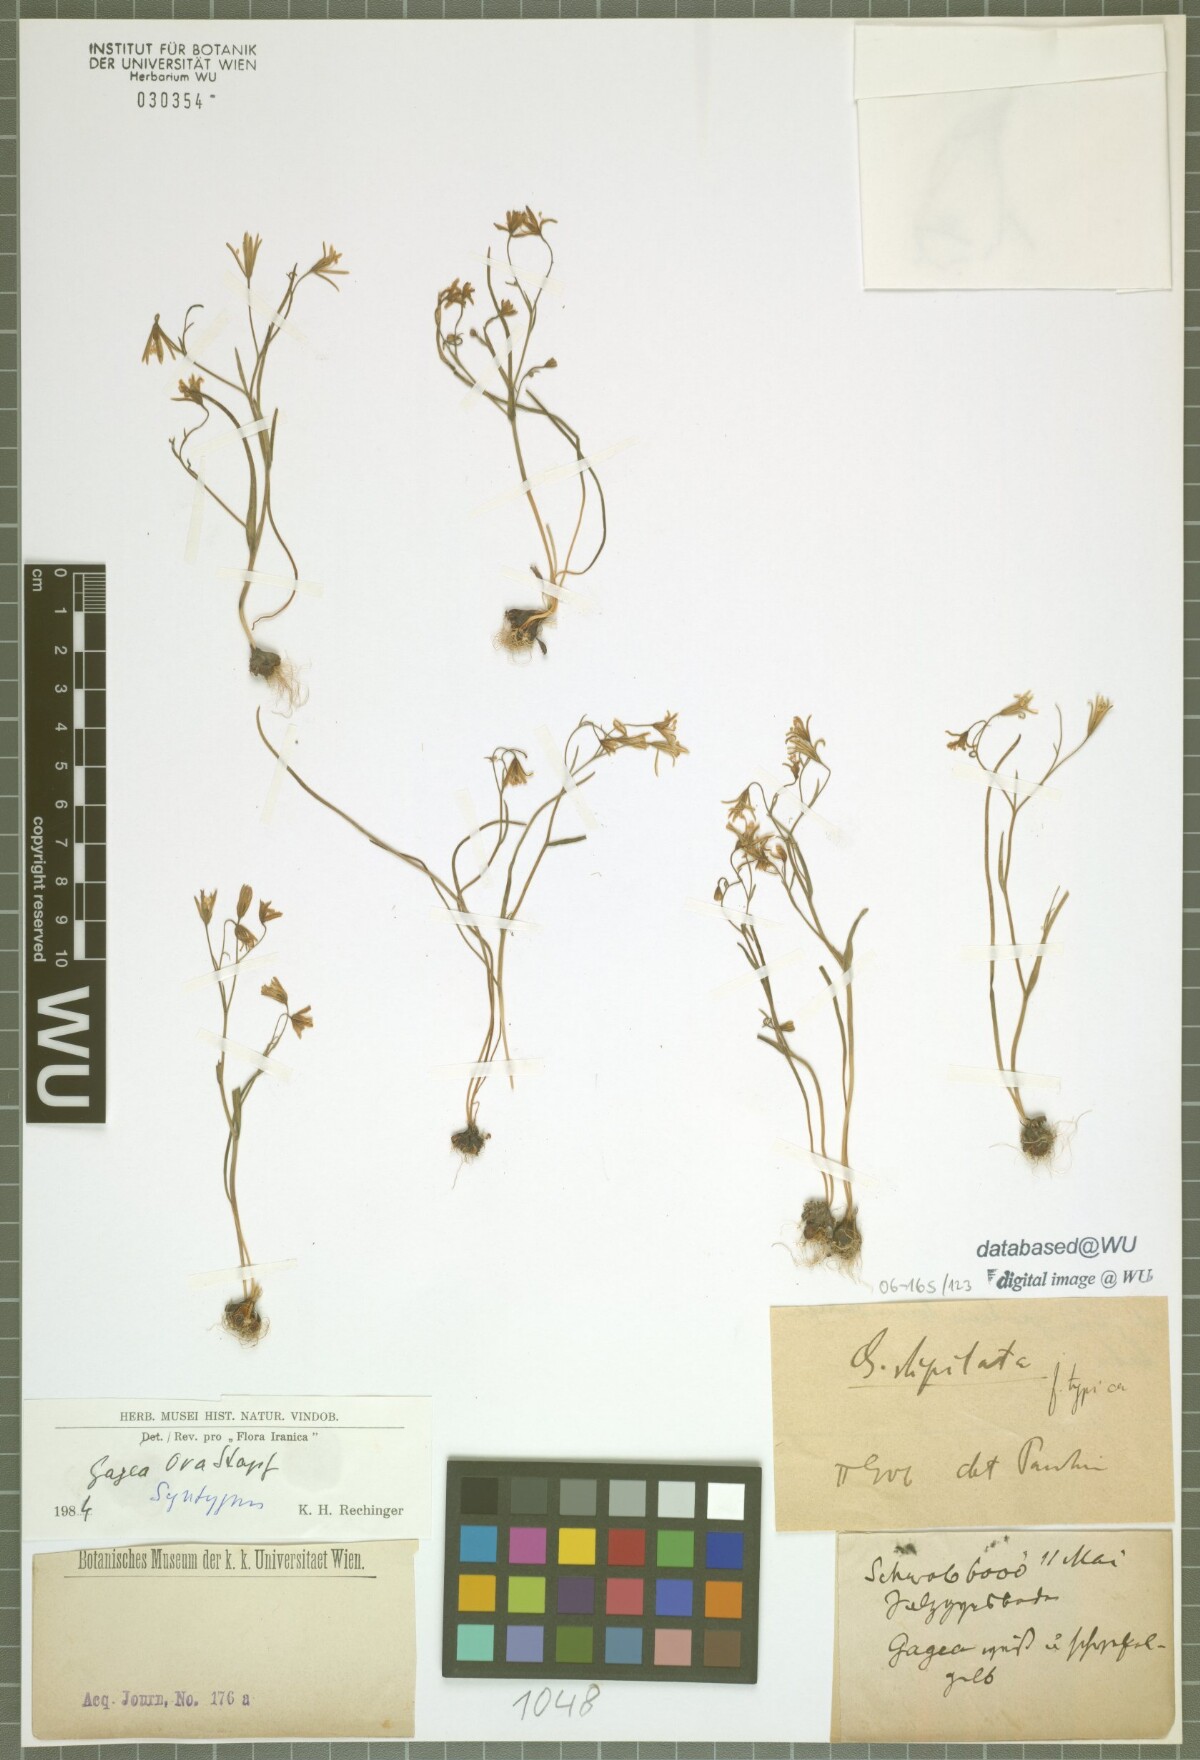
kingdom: Plantae
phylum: Tracheophyta
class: Liliopsida
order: Liliales
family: Liliaceae
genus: Gagea
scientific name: Gagea kunawurensis
